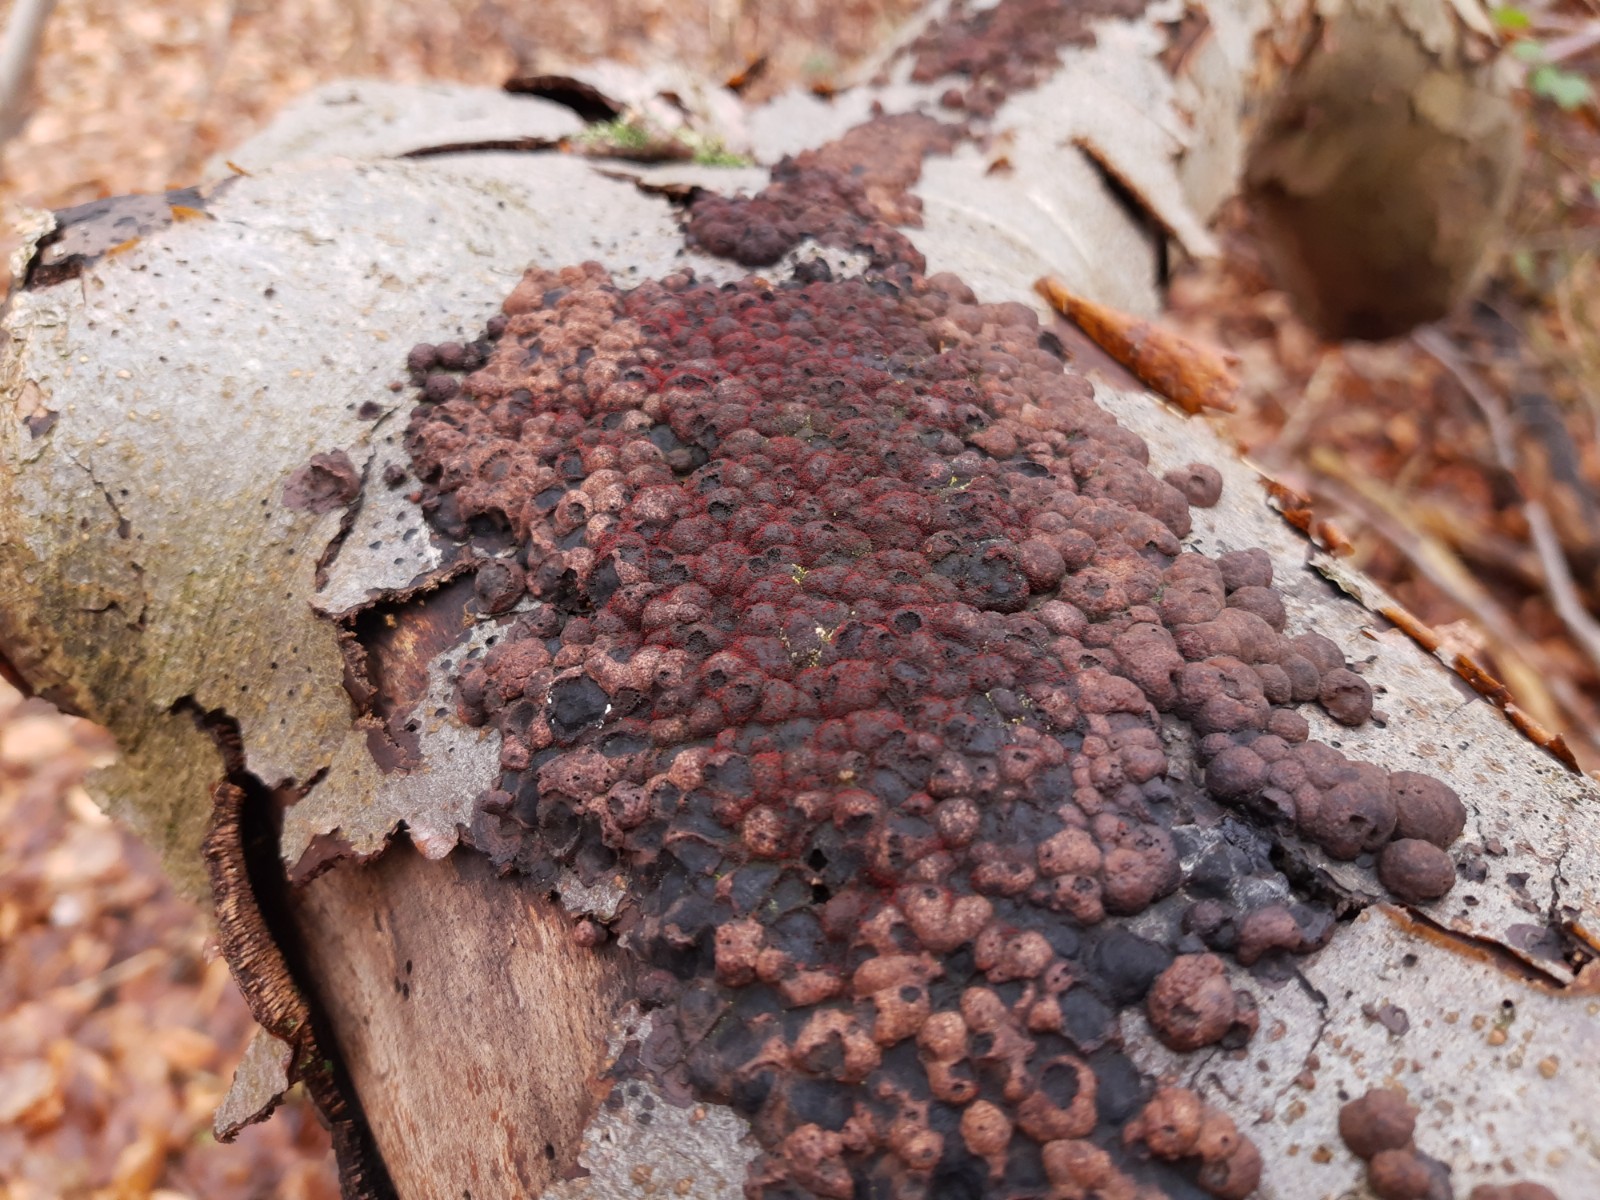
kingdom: Fungi
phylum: Ascomycota
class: Sordariomycetes
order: Hypocreales
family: Nectriaceae
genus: Cosmospora
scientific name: Cosmospora arxii
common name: kuljordbær-cinnobersvamp
